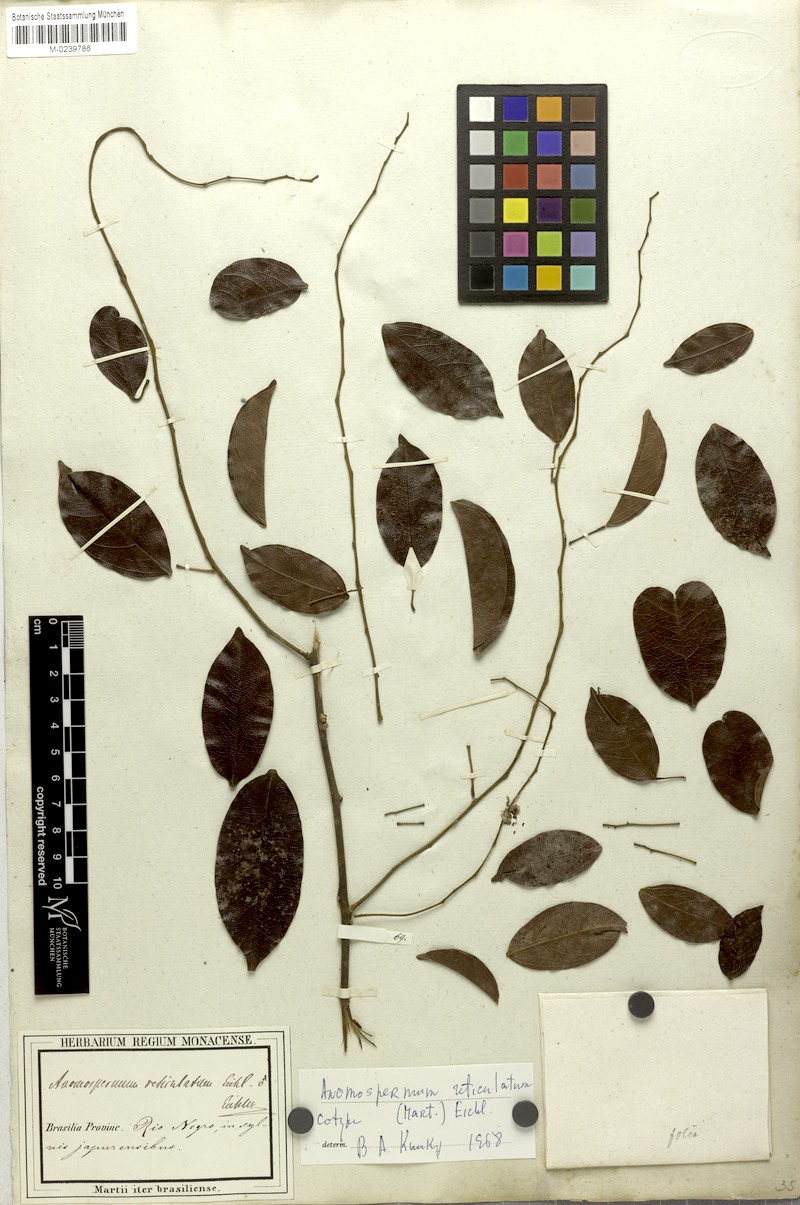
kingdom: Plantae
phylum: Tracheophyta
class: Magnoliopsida
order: Ranunculales
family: Menispermaceae
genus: Anomospermum
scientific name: Anomospermum reticulatum
